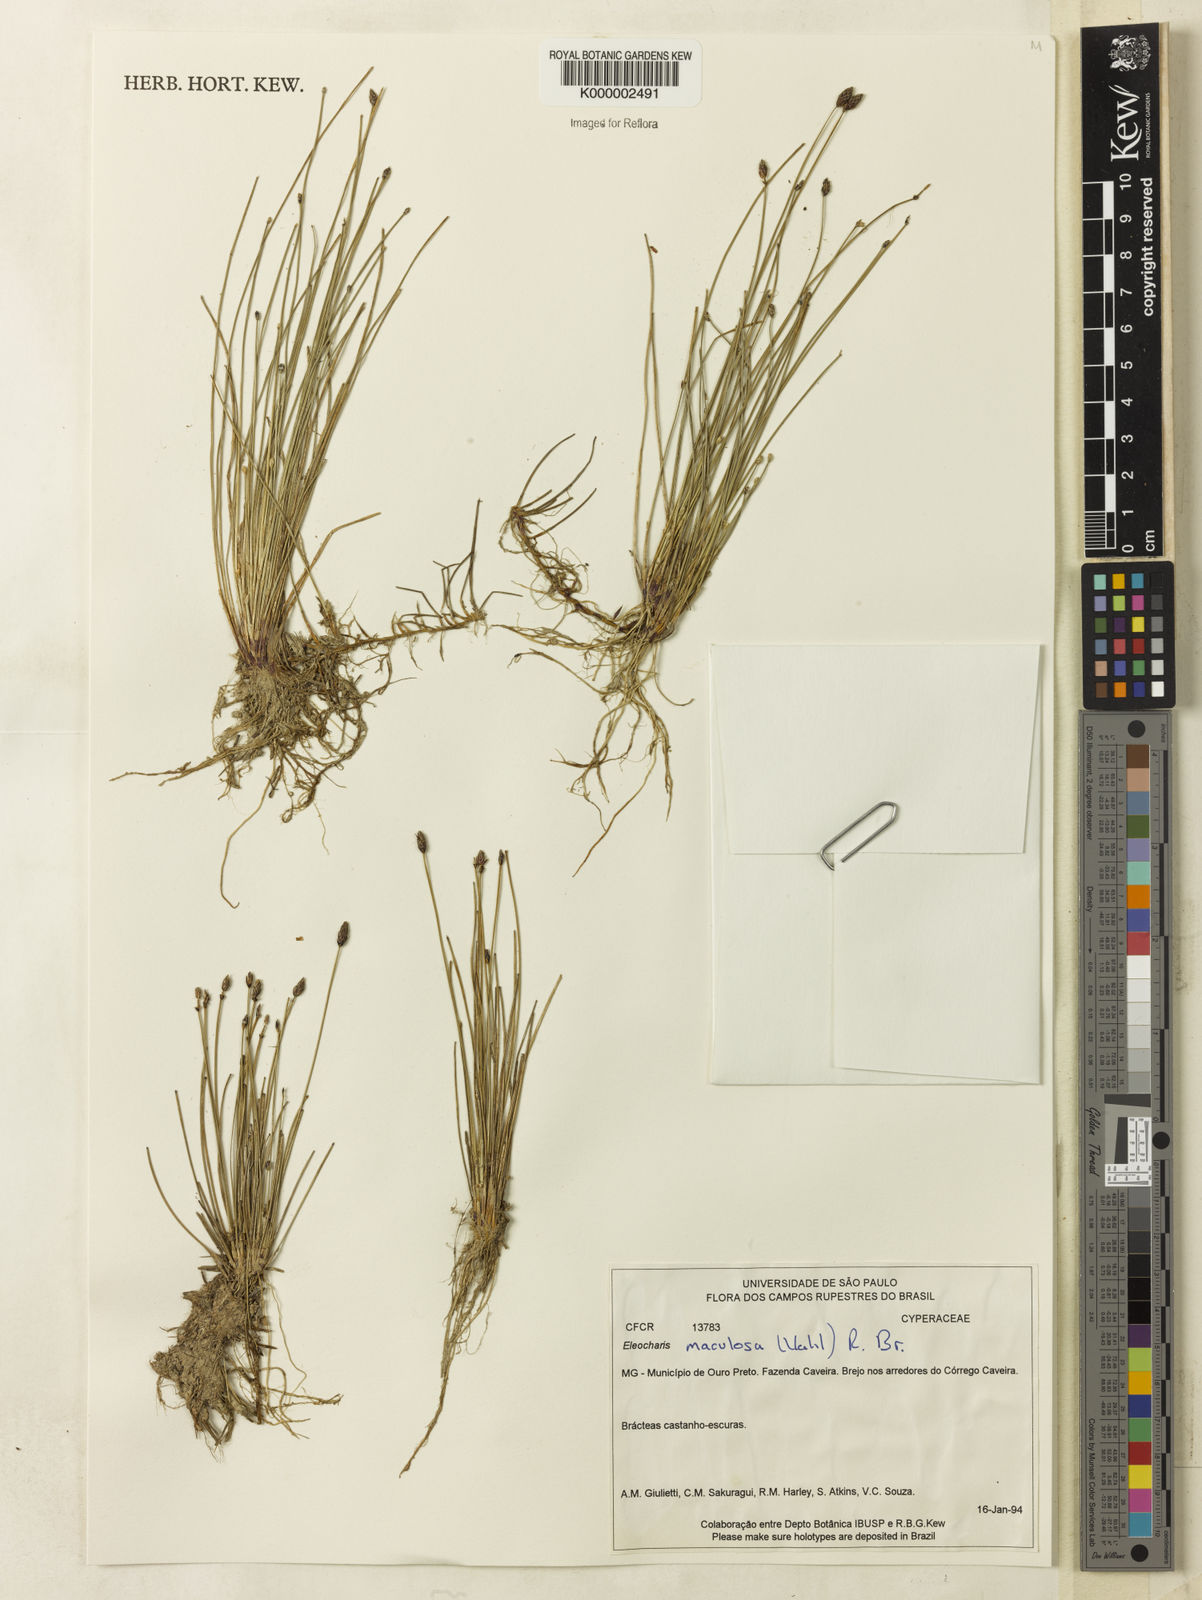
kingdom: Plantae
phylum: Tracheophyta
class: Liliopsida
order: Poales
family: Cyperaceae
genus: Eleocharis
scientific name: Eleocharis maculosa
